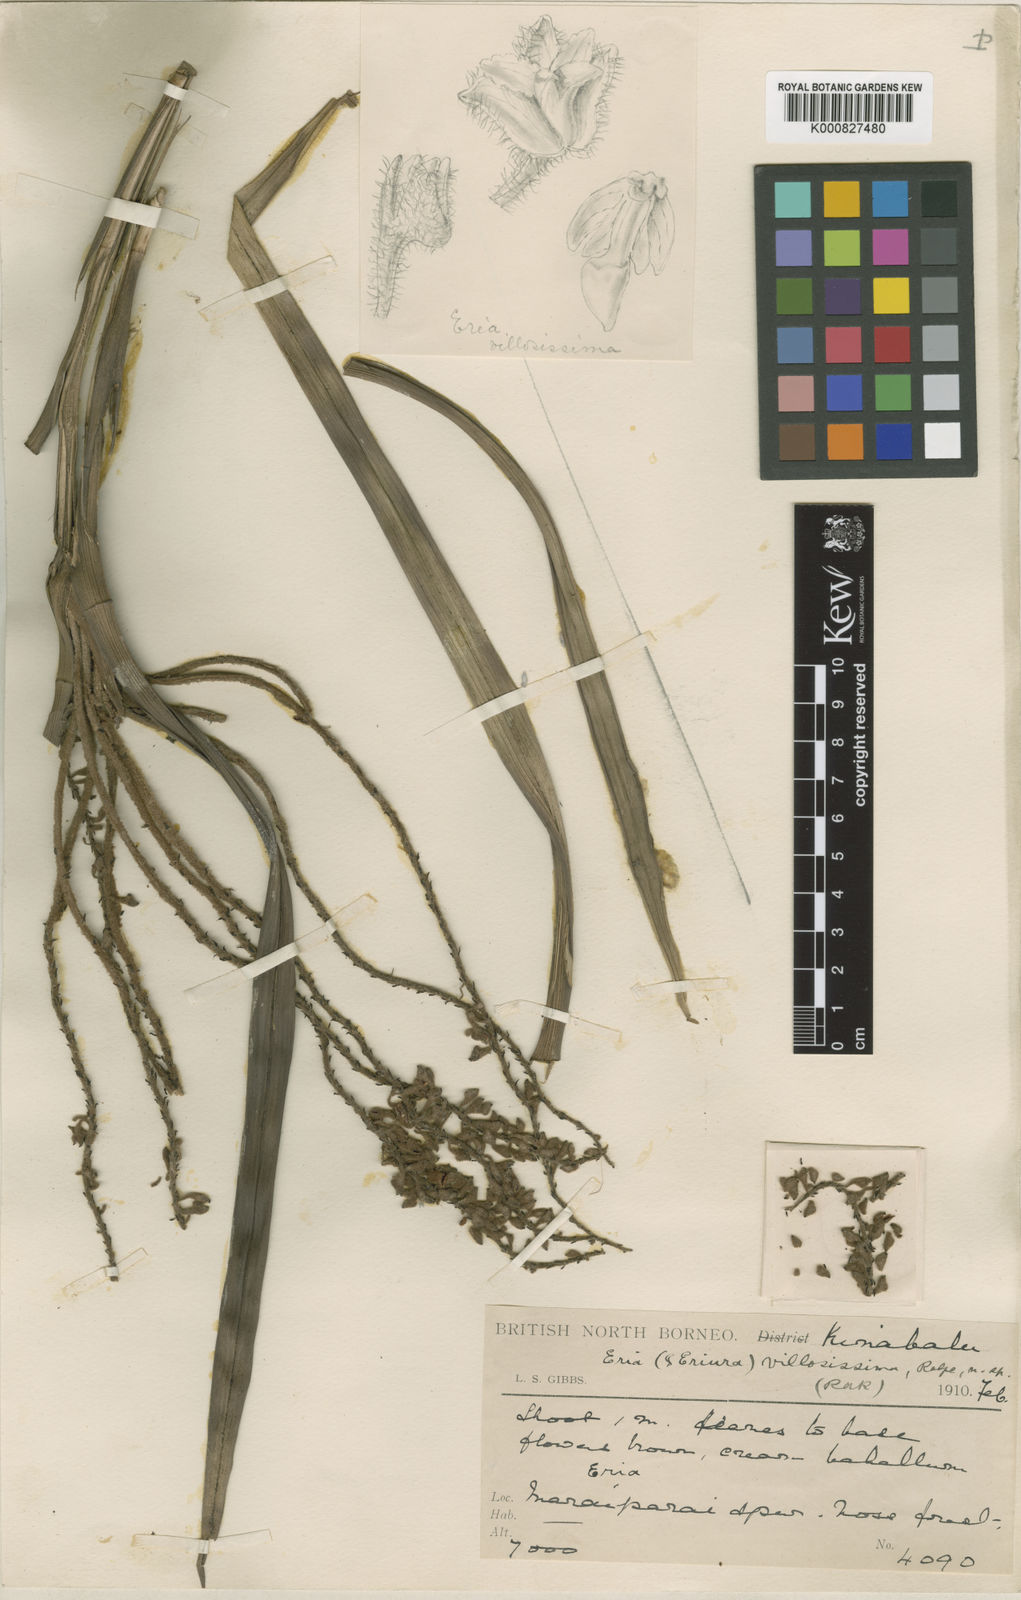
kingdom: Plantae
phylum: Tracheophyta
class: Liliopsida
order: Asparagales
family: Orchidaceae
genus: Mycaranthes
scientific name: Mycaranthes oblitterata
